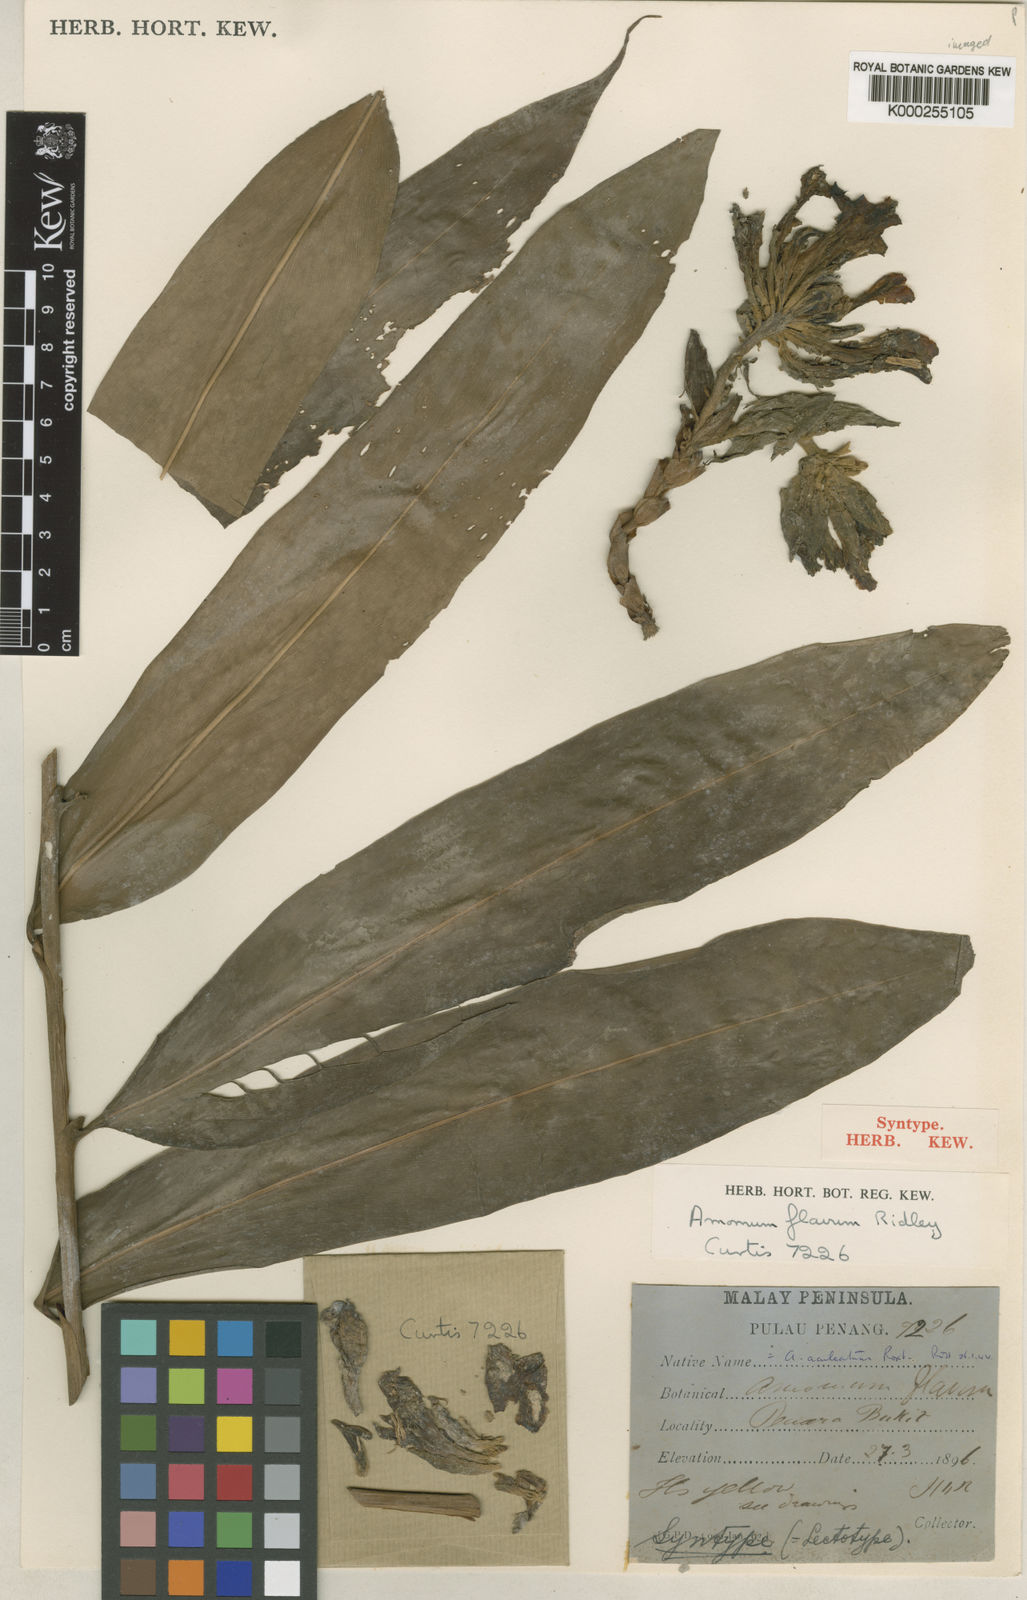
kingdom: Plantae
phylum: Tracheophyta
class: Liliopsida
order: Zingiberales
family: Zingiberaceae
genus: Meistera
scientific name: Meistera aculeata
